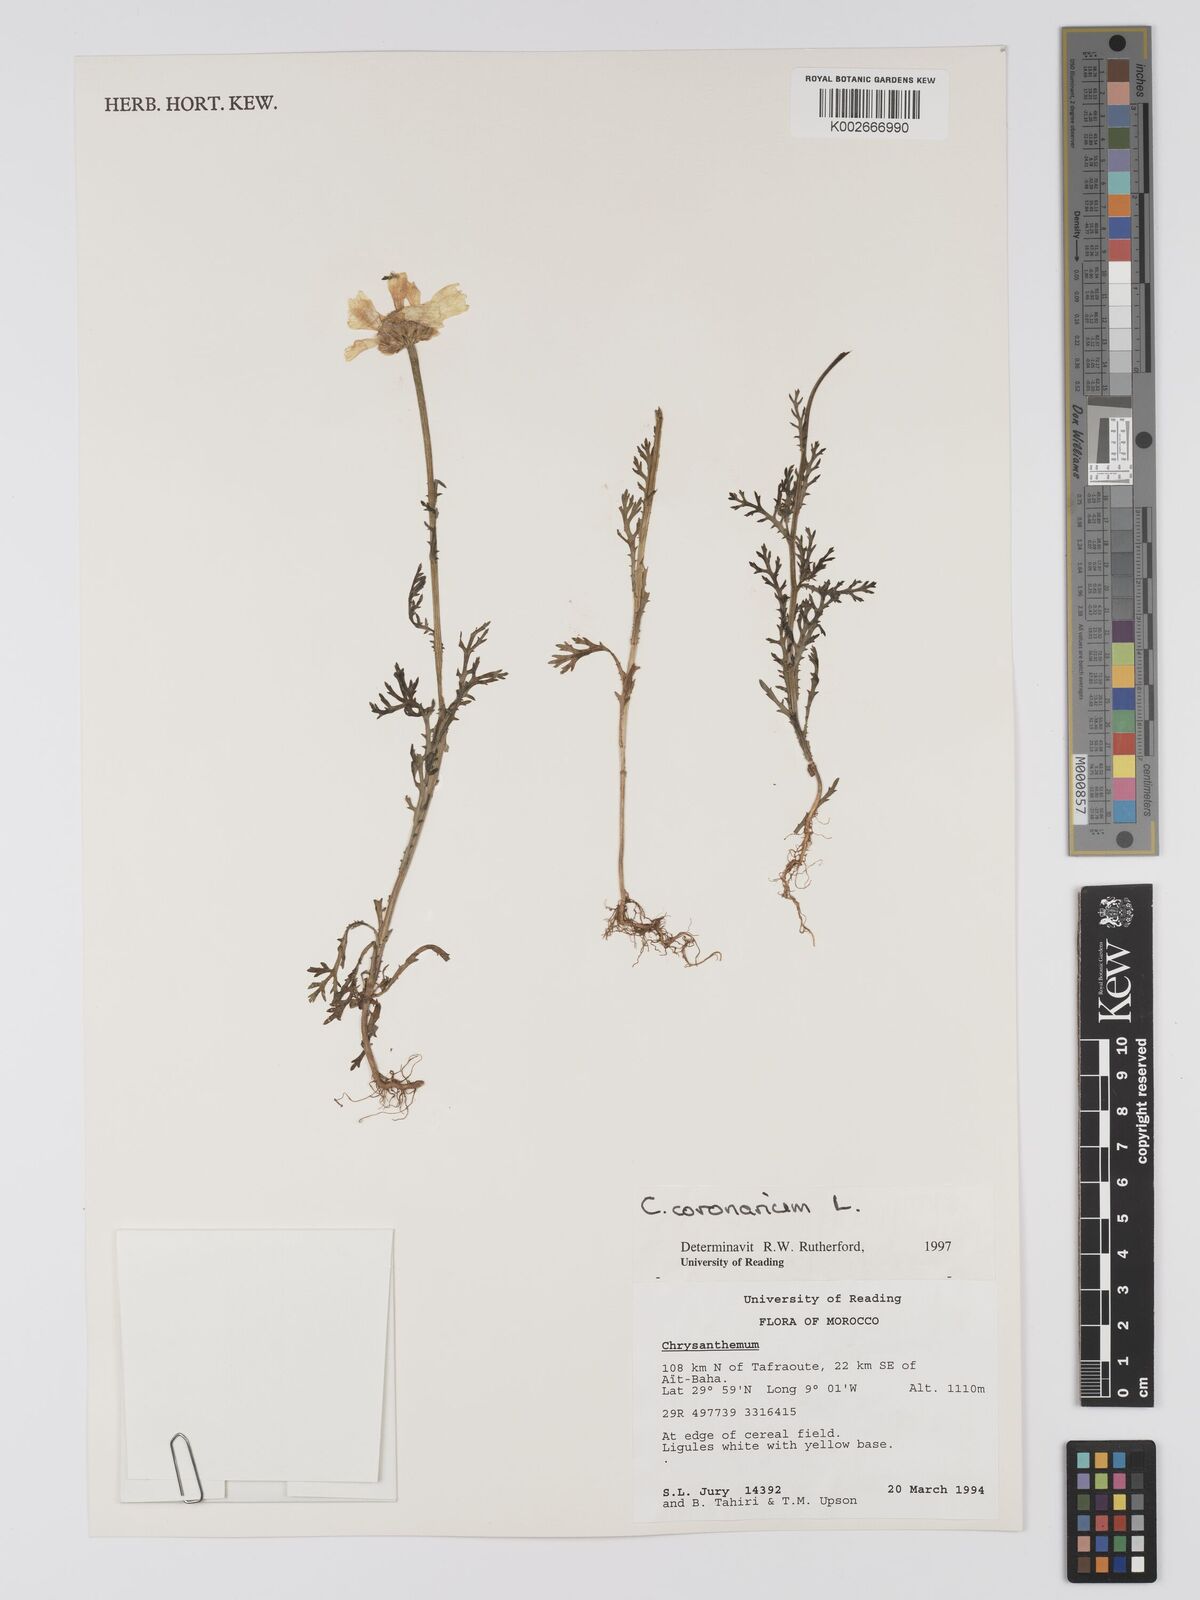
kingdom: Plantae
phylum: Tracheophyta
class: Magnoliopsida
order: Asterales
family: Asteraceae
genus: Glebionis
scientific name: Glebionis coronaria
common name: Crowndaisy
